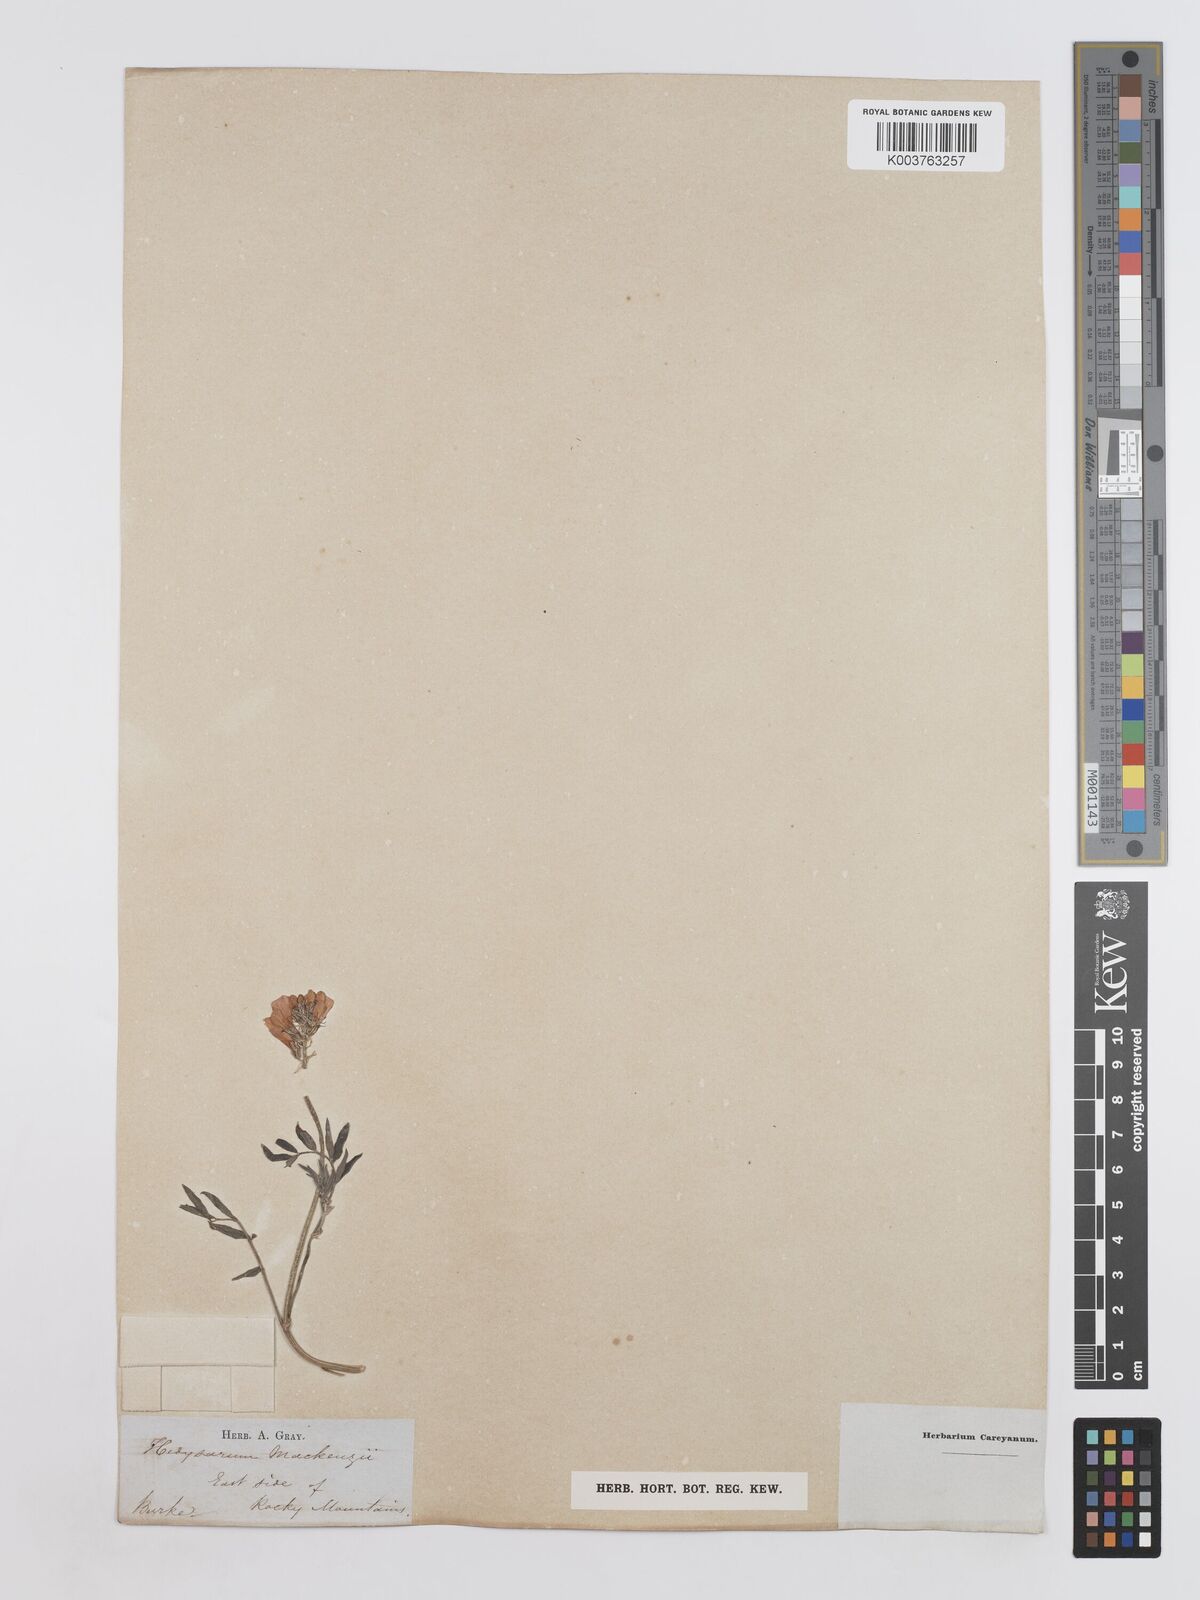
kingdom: Plantae
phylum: Tracheophyta
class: Magnoliopsida
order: Fabales
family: Fabaceae
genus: Hedysarum
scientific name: Hedysarum boreale
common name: Northern sweet-vetch
